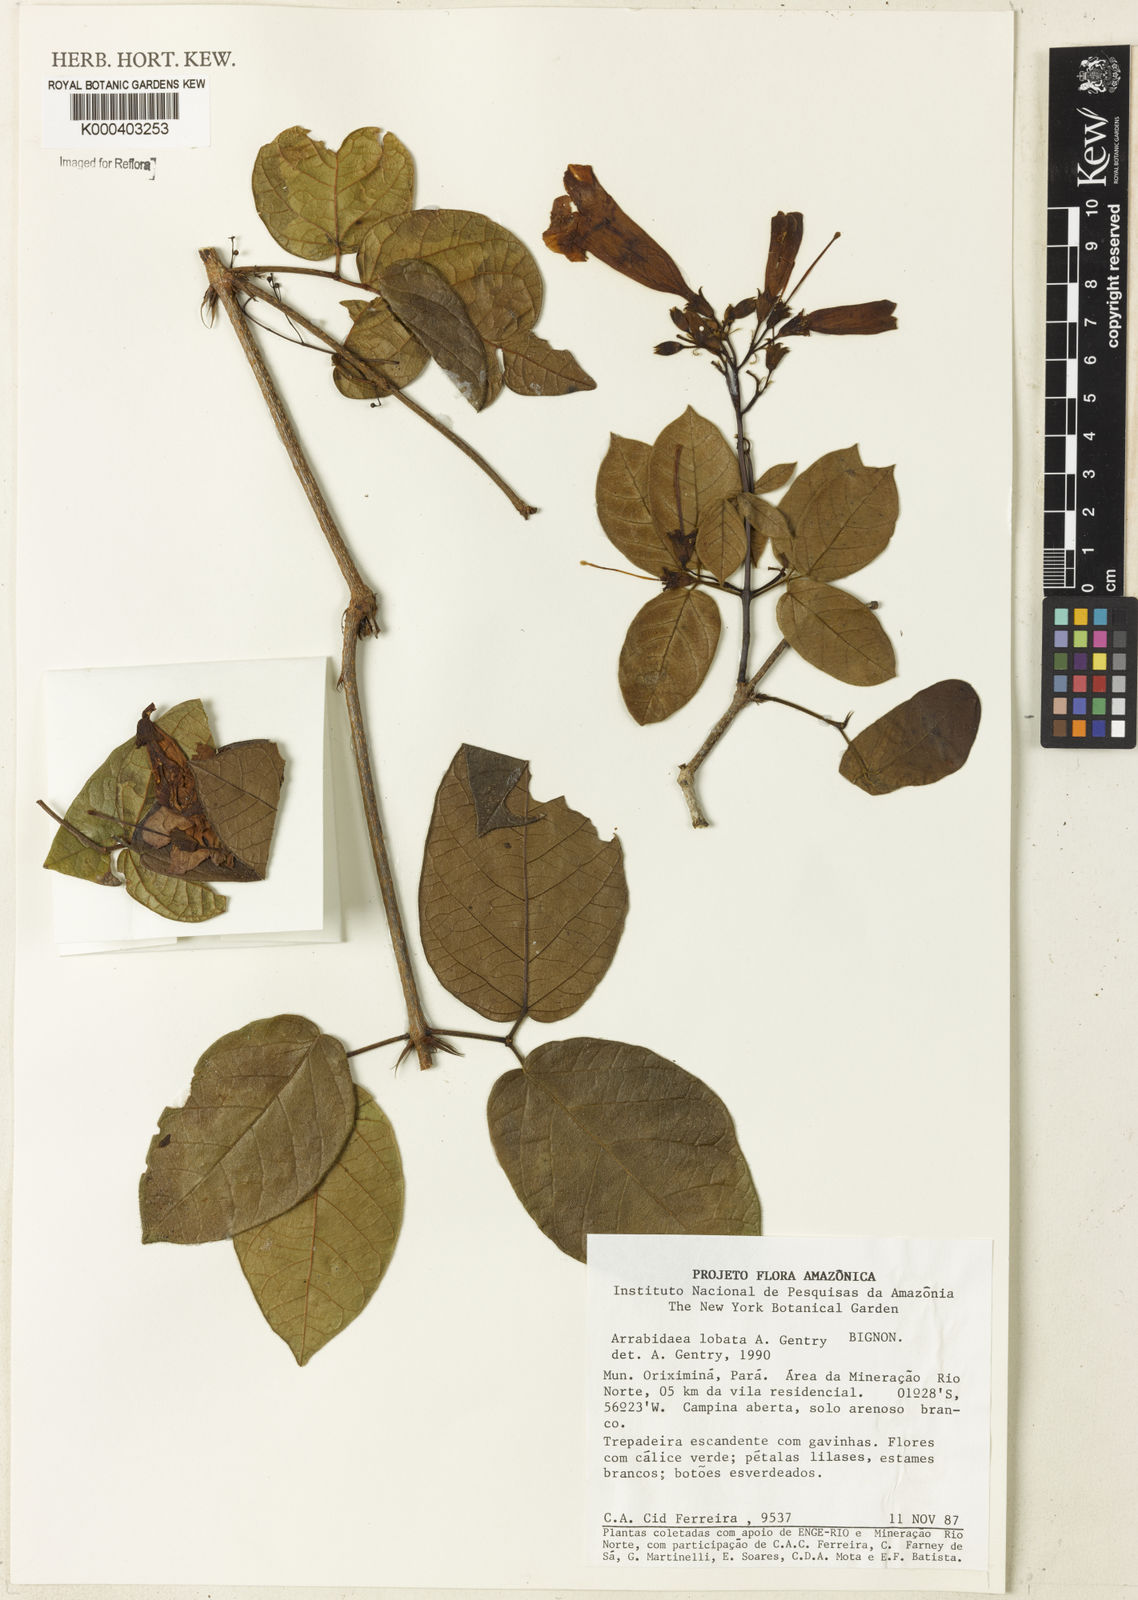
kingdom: Plantae
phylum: Tracheophyta
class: Magnoliopsida
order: Rosales
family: Rhamnaceae
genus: Arrabidaea
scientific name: Arrabidaea
